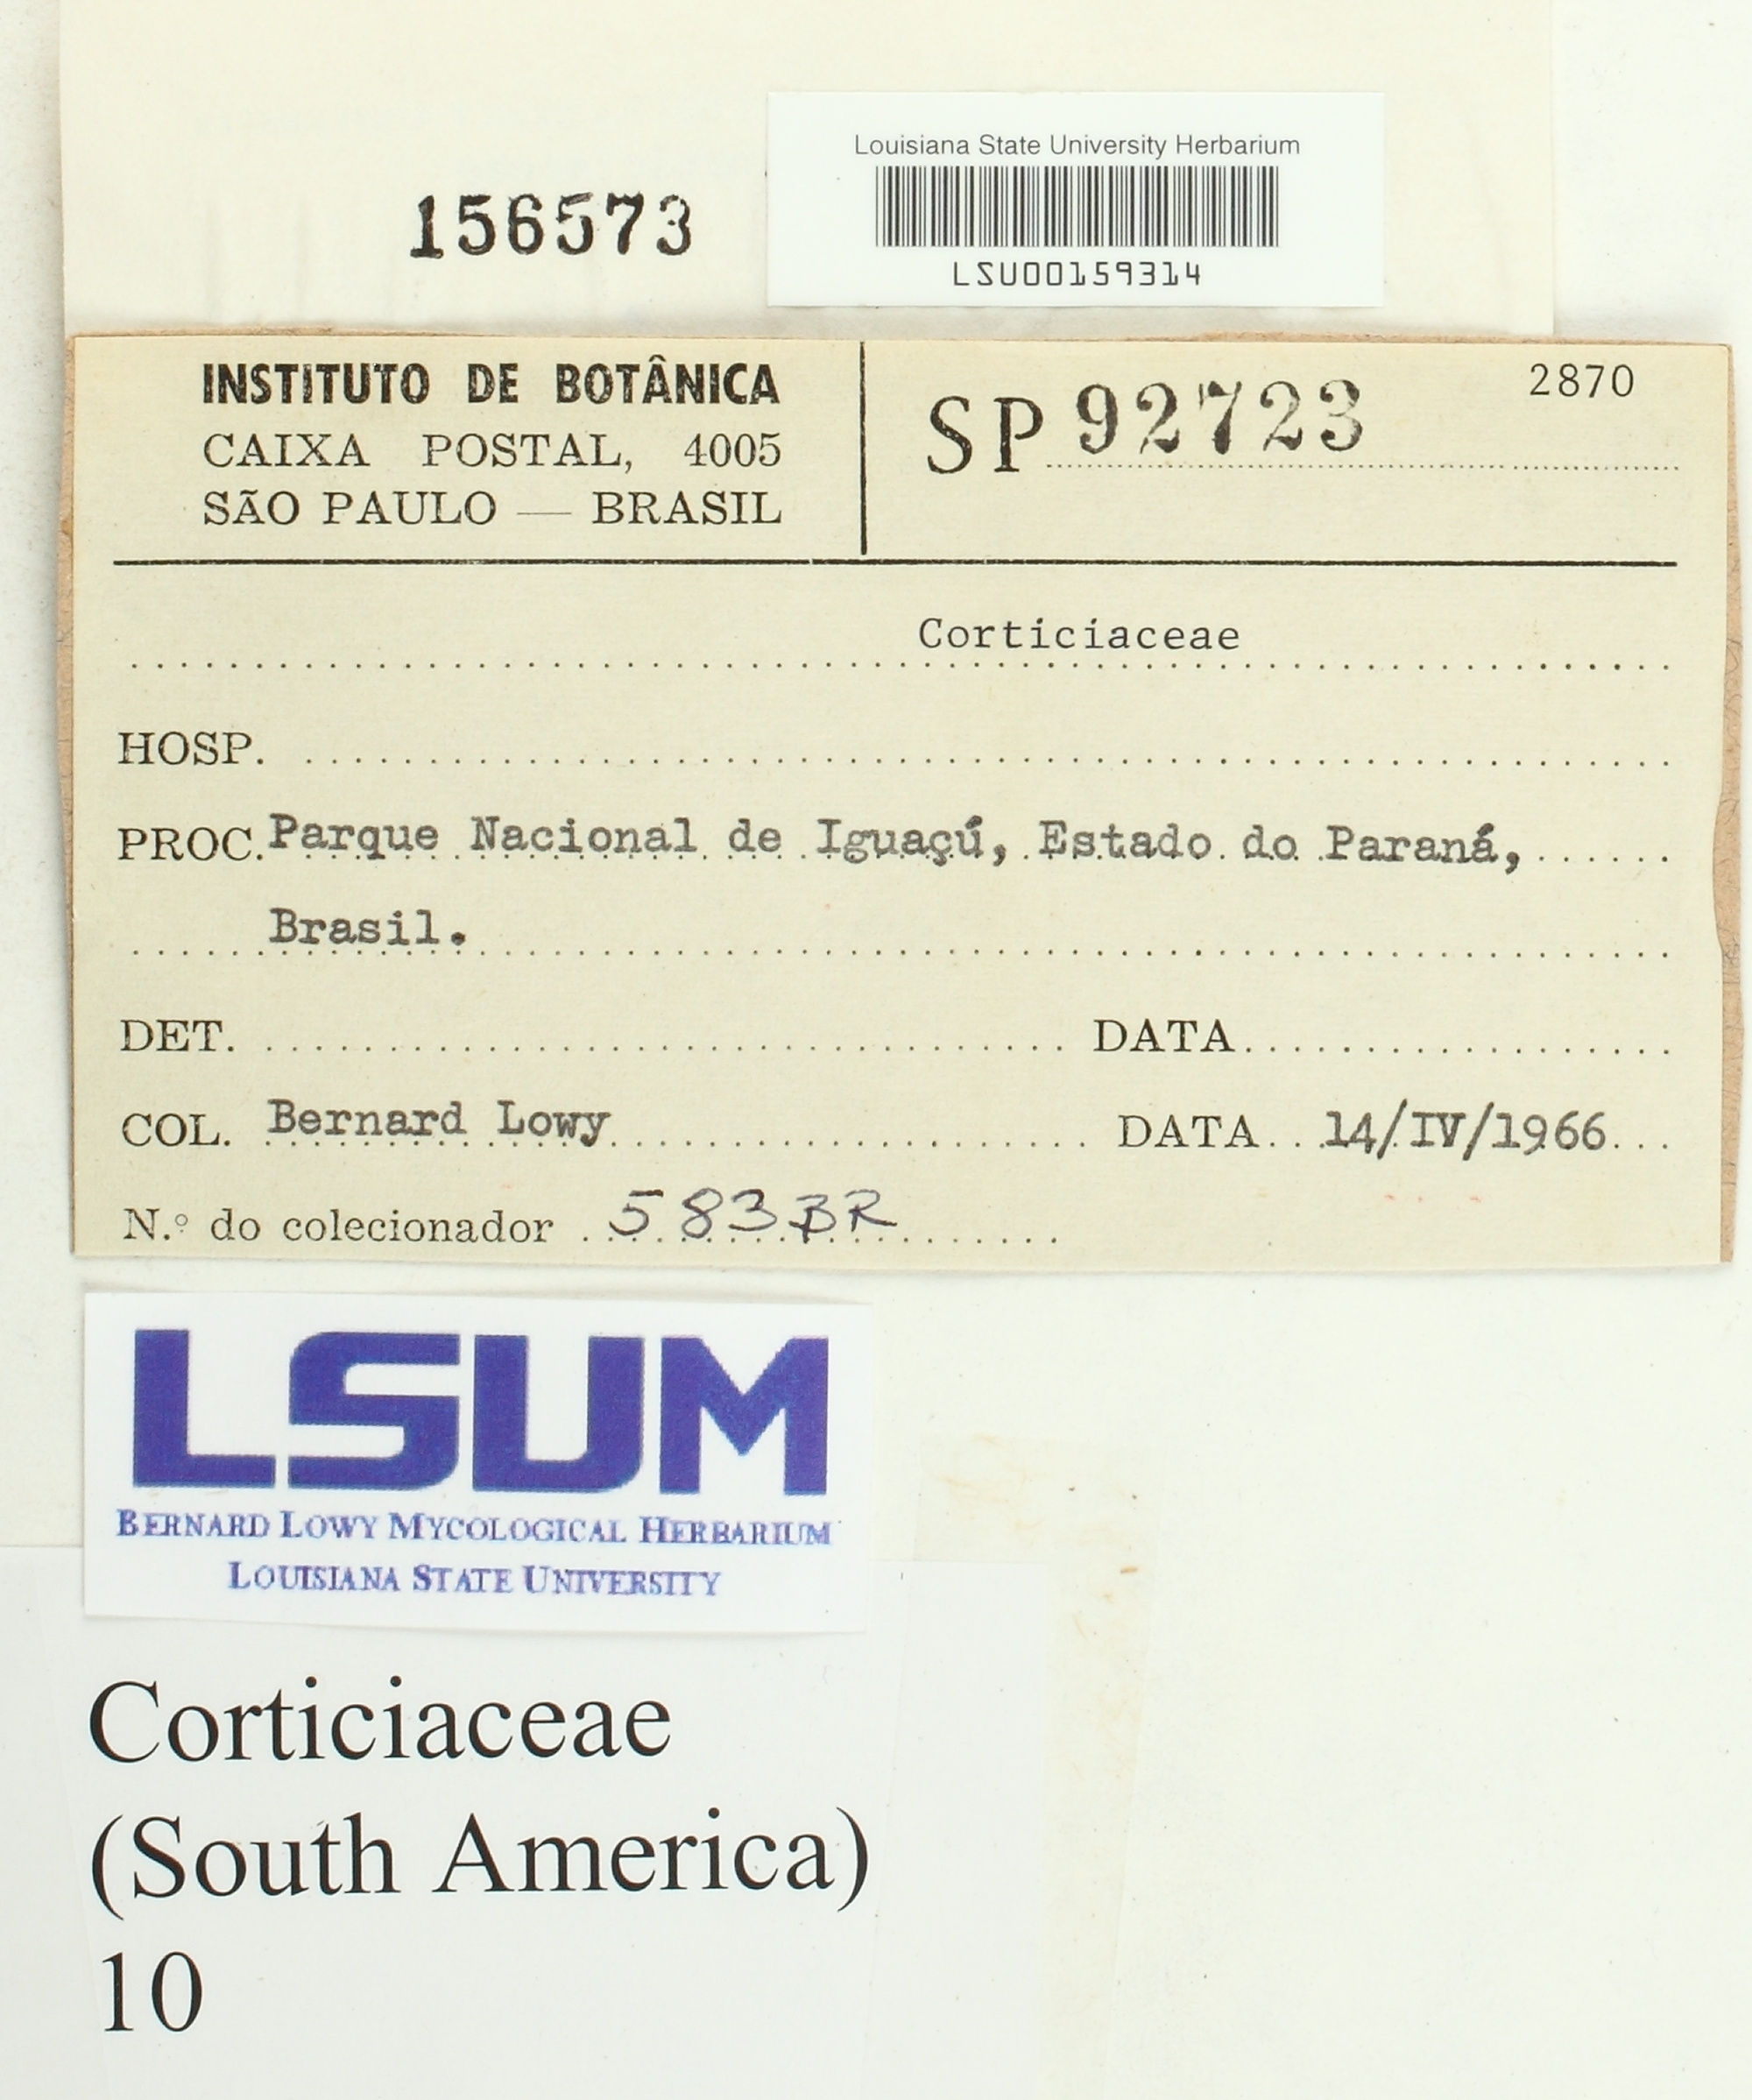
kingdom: Fungi
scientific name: Fungi
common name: Fungi
